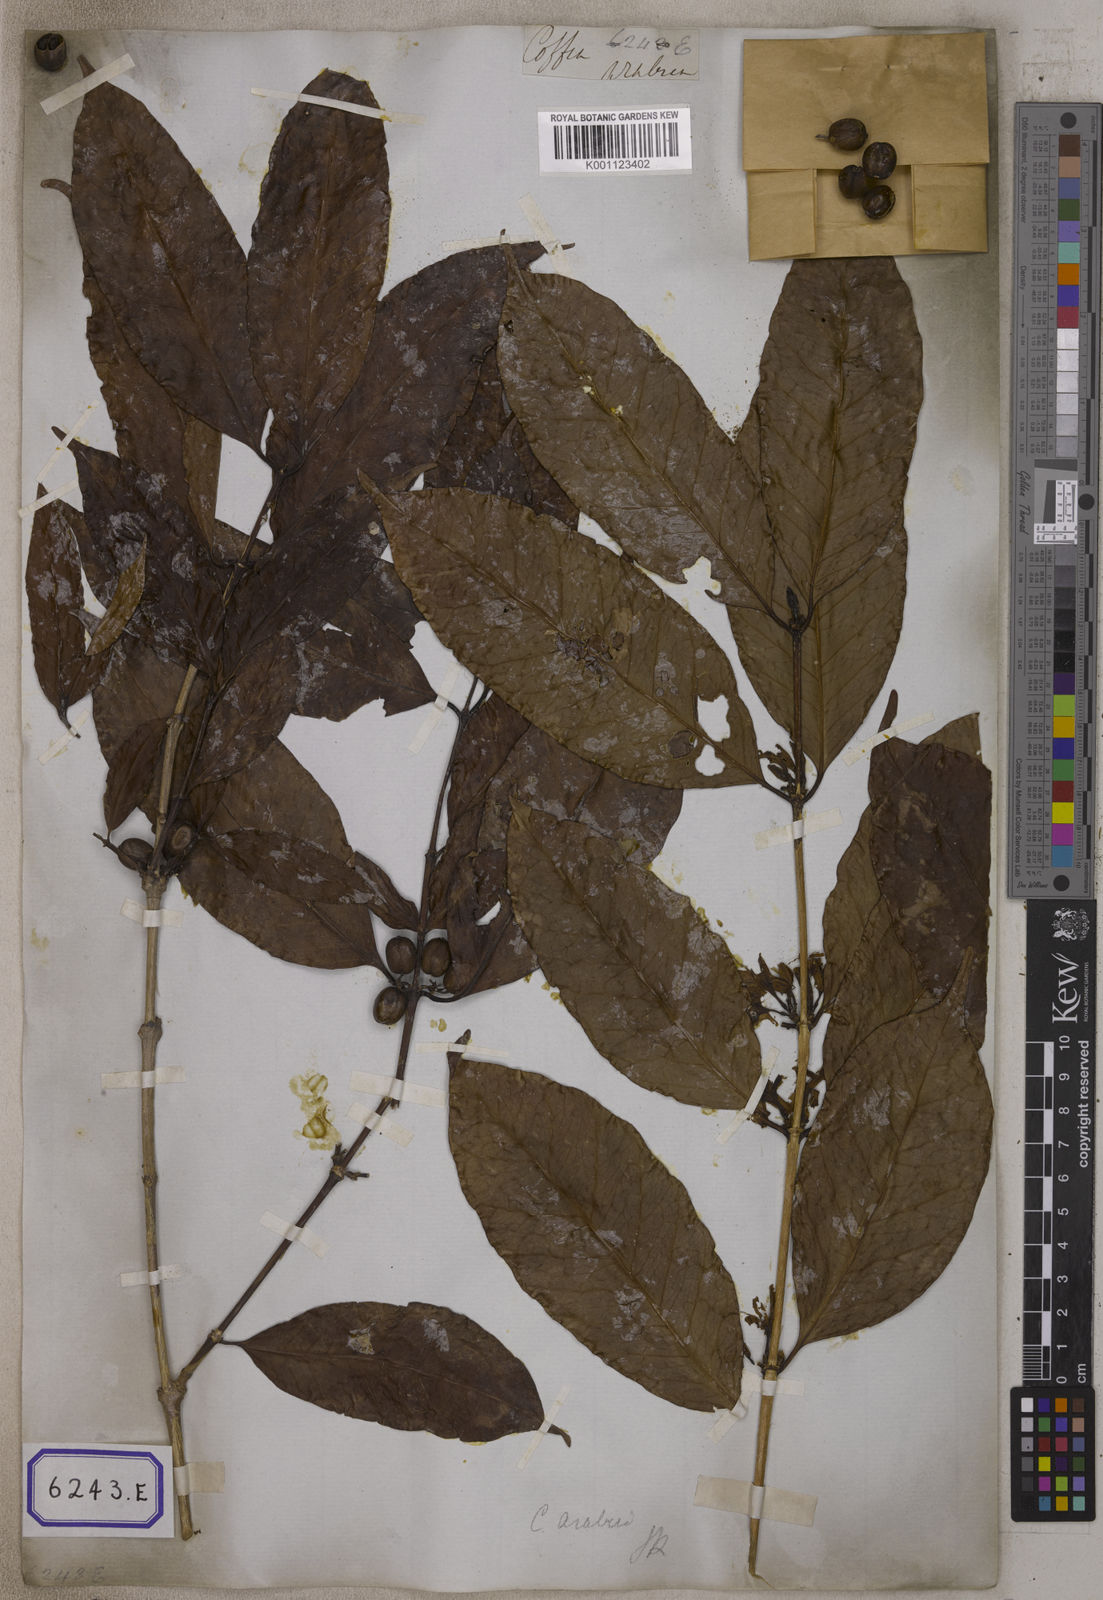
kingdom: Plantae
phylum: Tracheophyta
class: Magnoliopsida
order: Gentianales
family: Rubiaceae
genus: Coffea
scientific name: Coffea arabica
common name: Coffee
